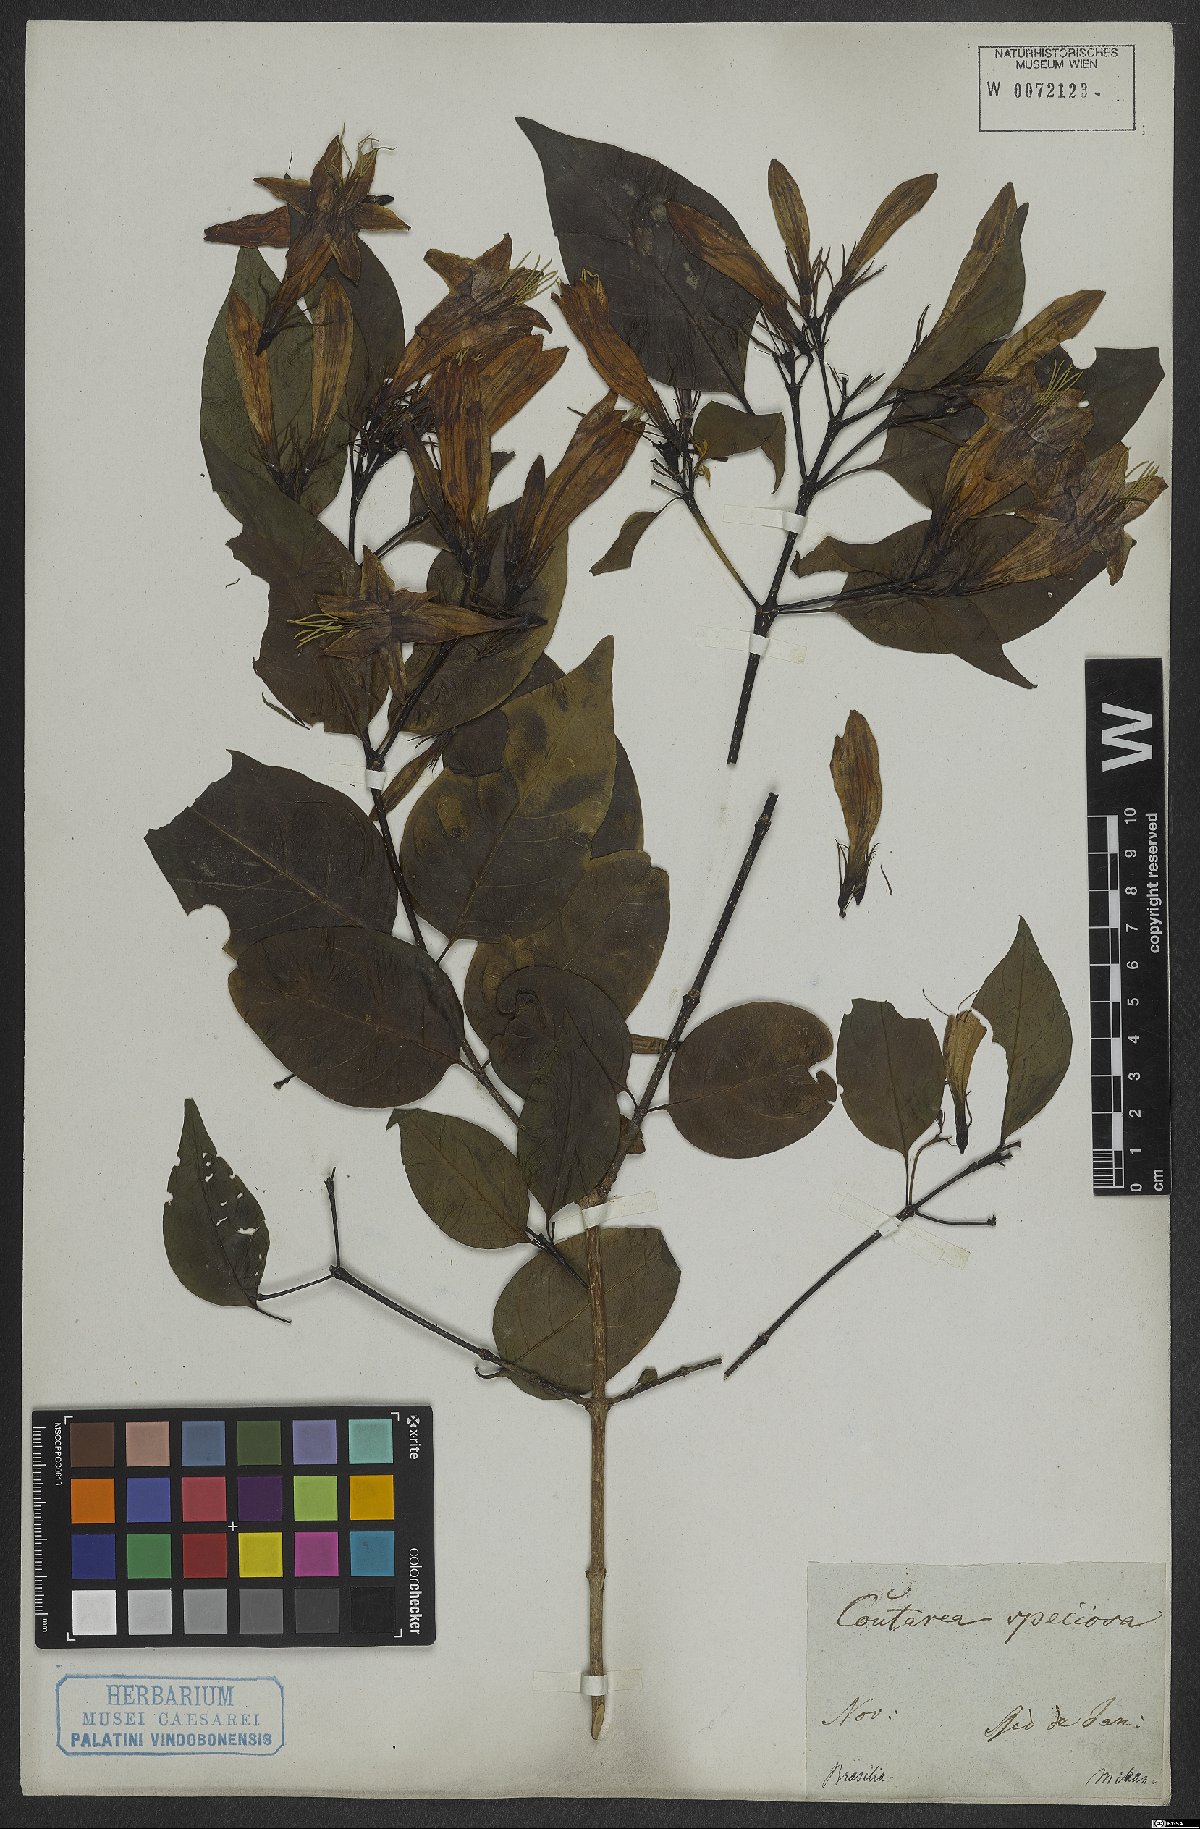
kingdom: Plantae
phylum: Tracheophyta
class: Magnoliopsida
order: Gentianales
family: Rubiaceae
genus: Coutarea
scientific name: Coutarea hexandra
